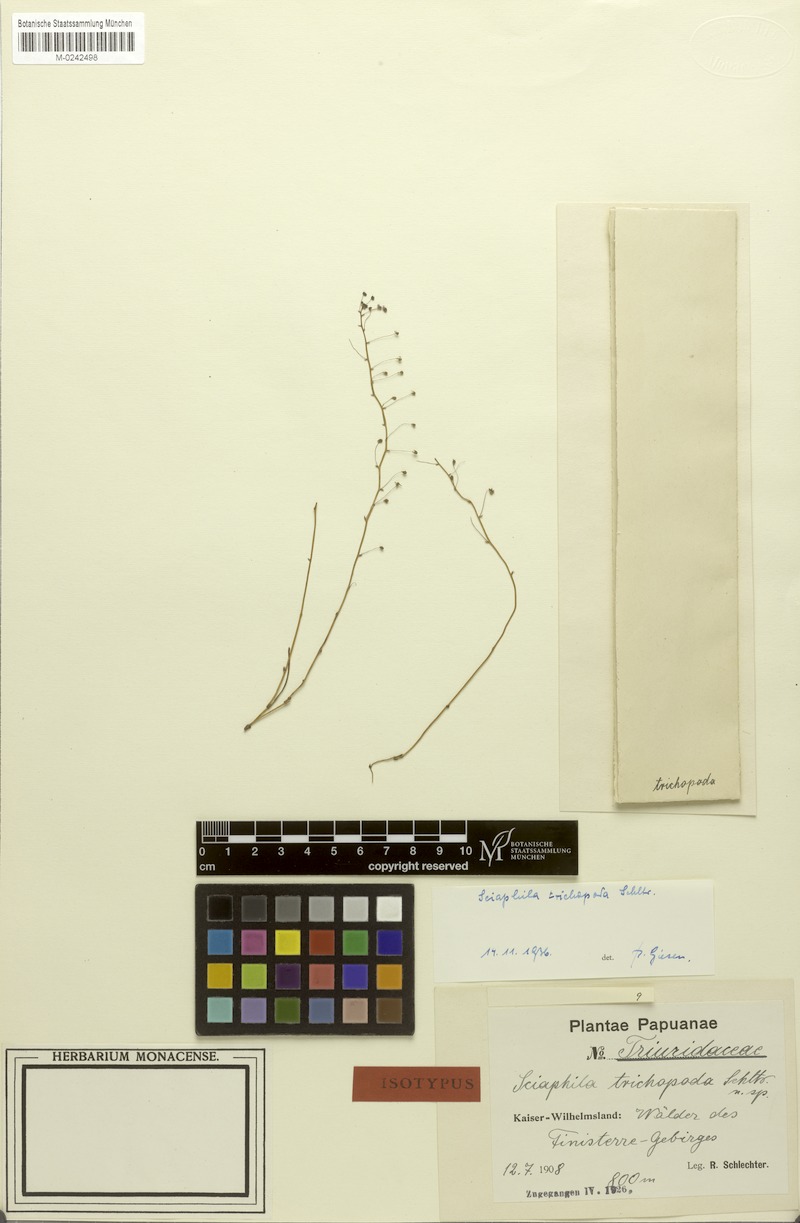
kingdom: Plantae
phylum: Tracheophyta
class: Liliopsida
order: Pandanales
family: Triuridaceae
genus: Sciaphila
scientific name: Sciaphila densiflora
